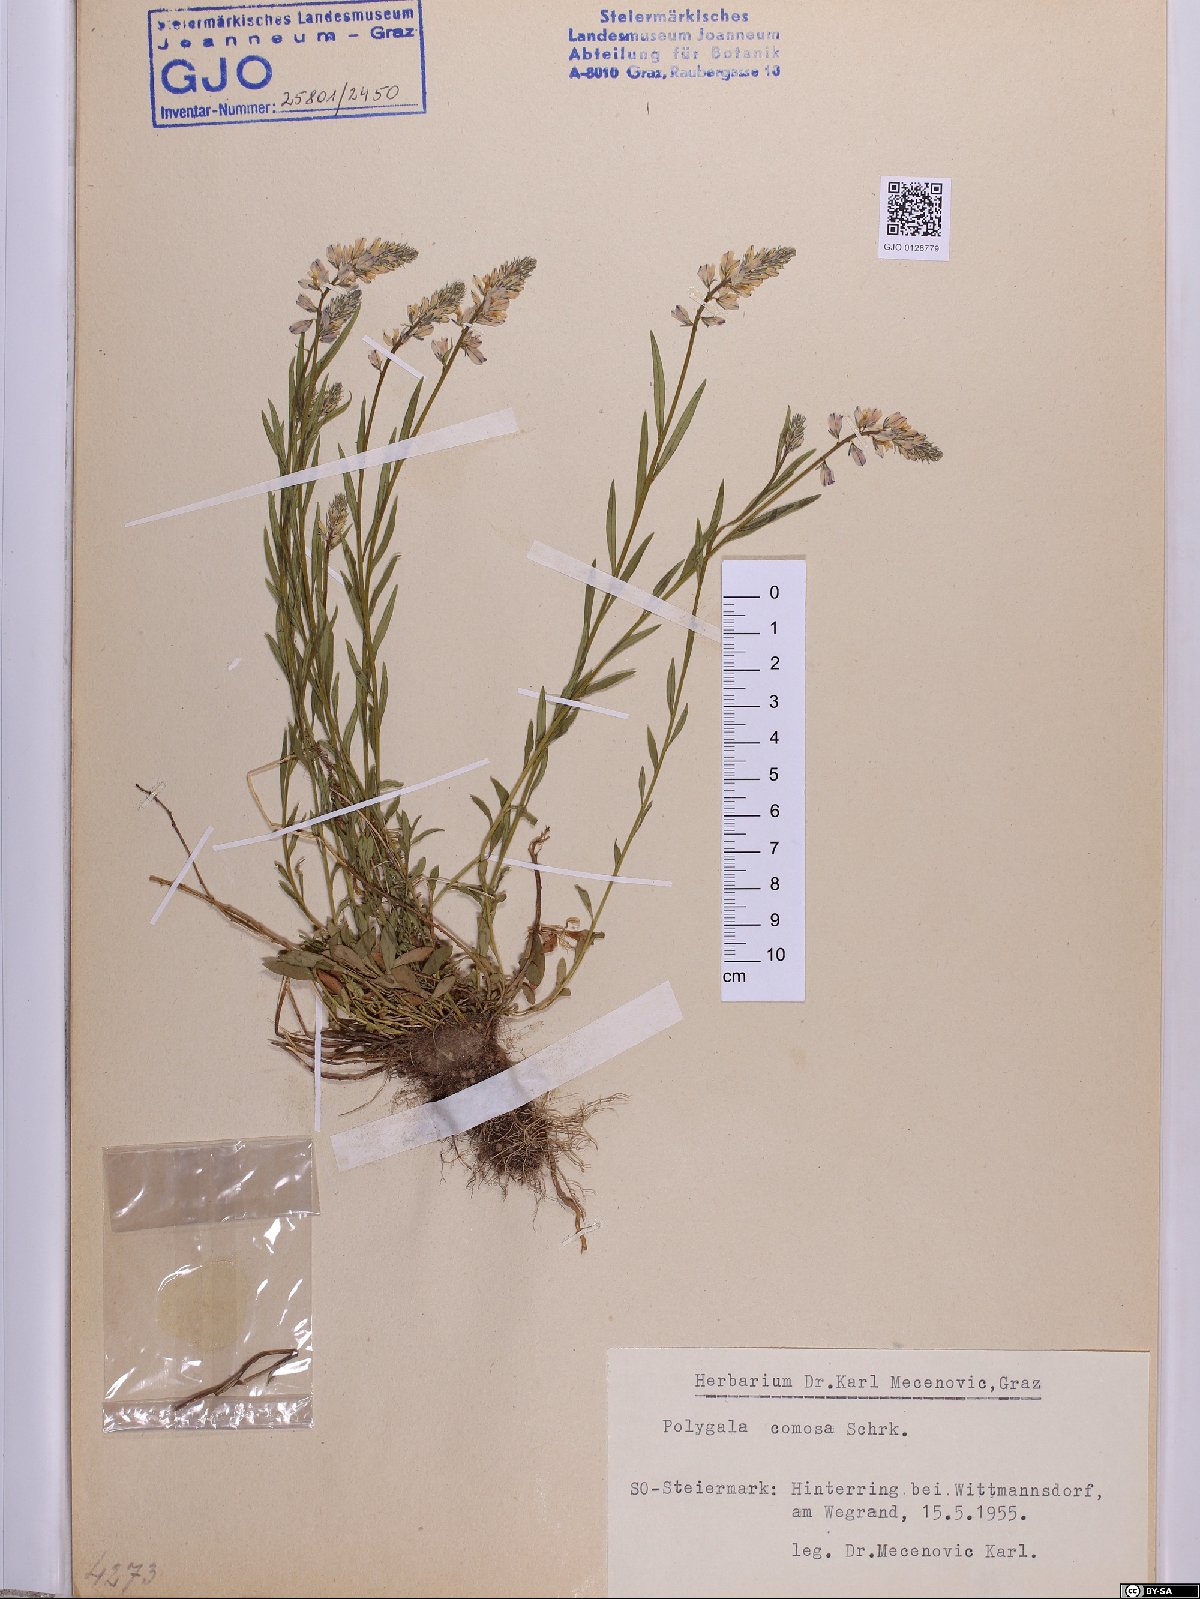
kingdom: Plantae
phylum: Tracheophyta
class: Magnoliopsida
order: Fabales
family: Polygalaceae
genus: Polygala
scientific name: Polygala comosa
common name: Tufted milkwort
